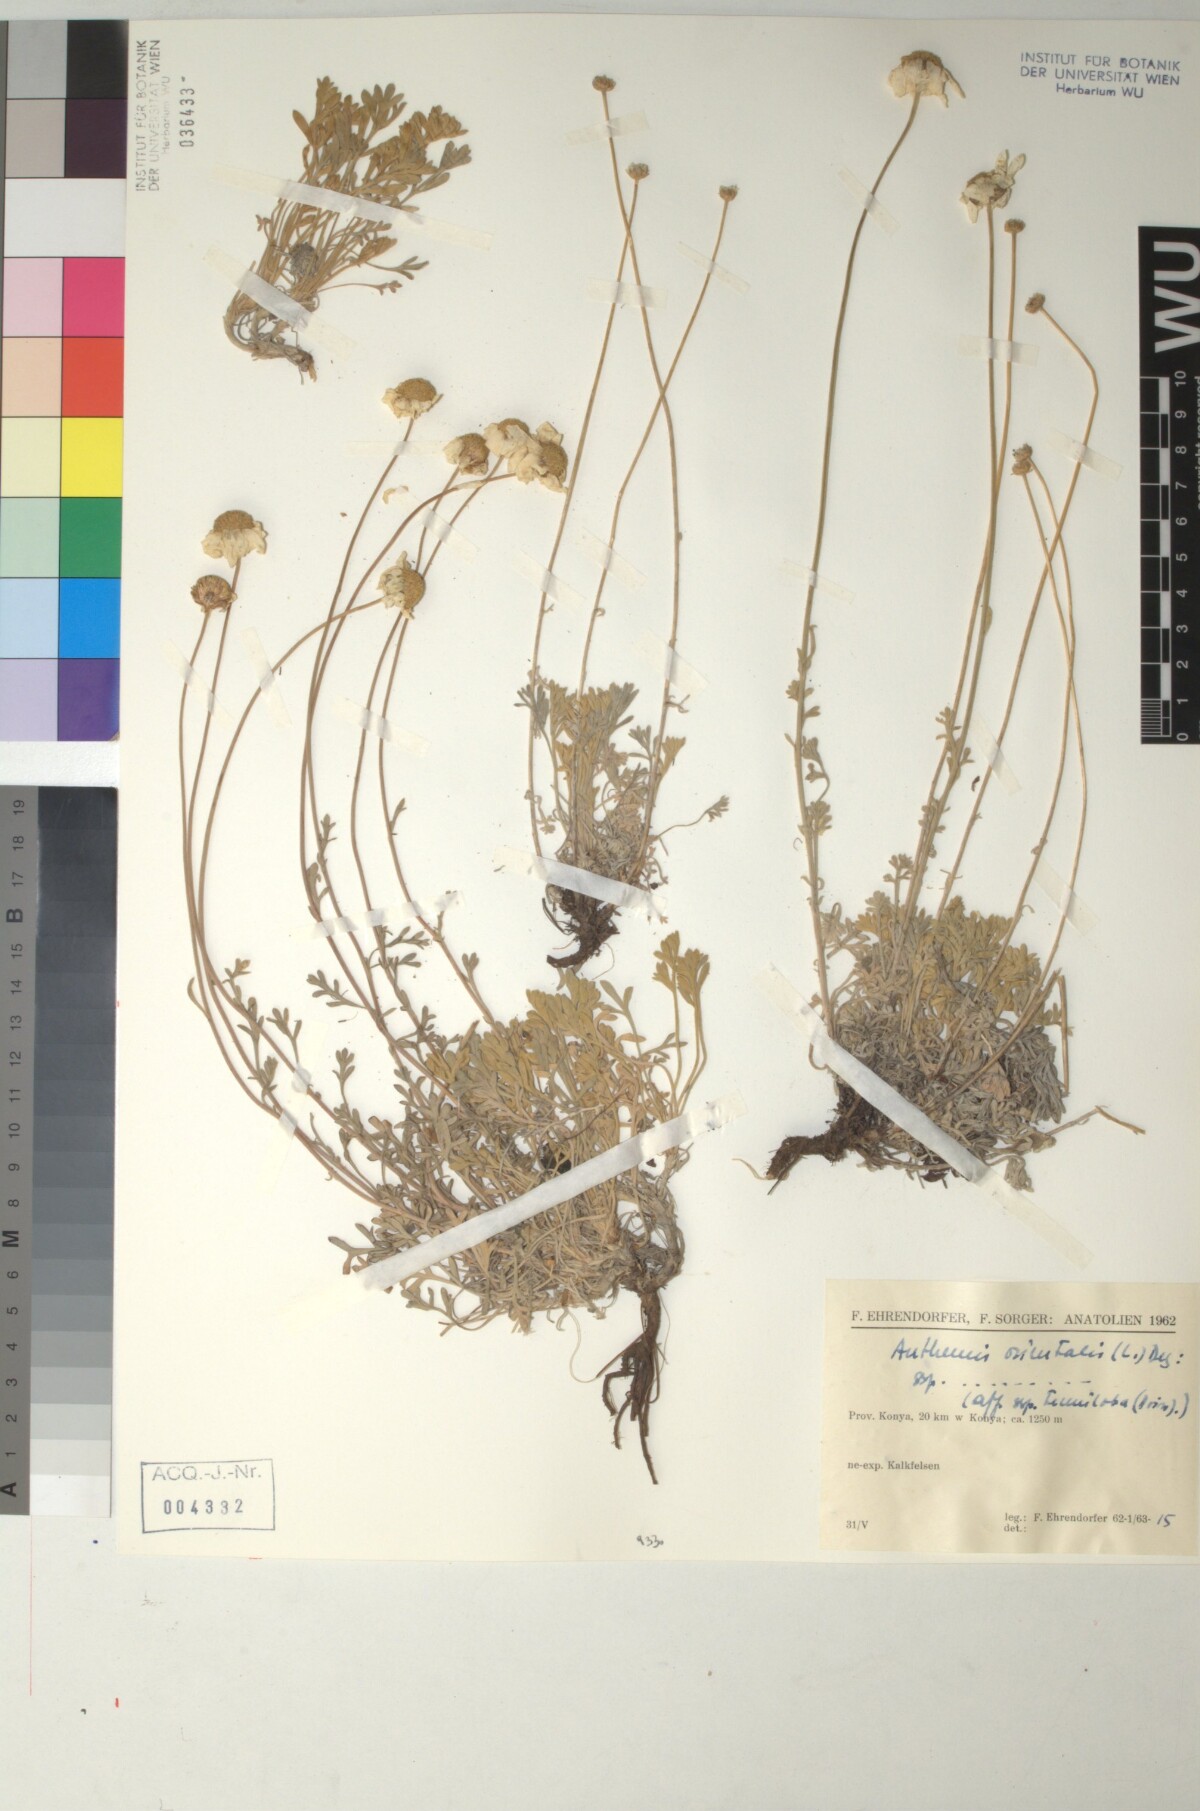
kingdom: Plantae
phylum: Tracheophyta
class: Magnoliopsida
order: Asterales
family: Asteraceae
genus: Anthemis
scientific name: Anthemis orientalis
